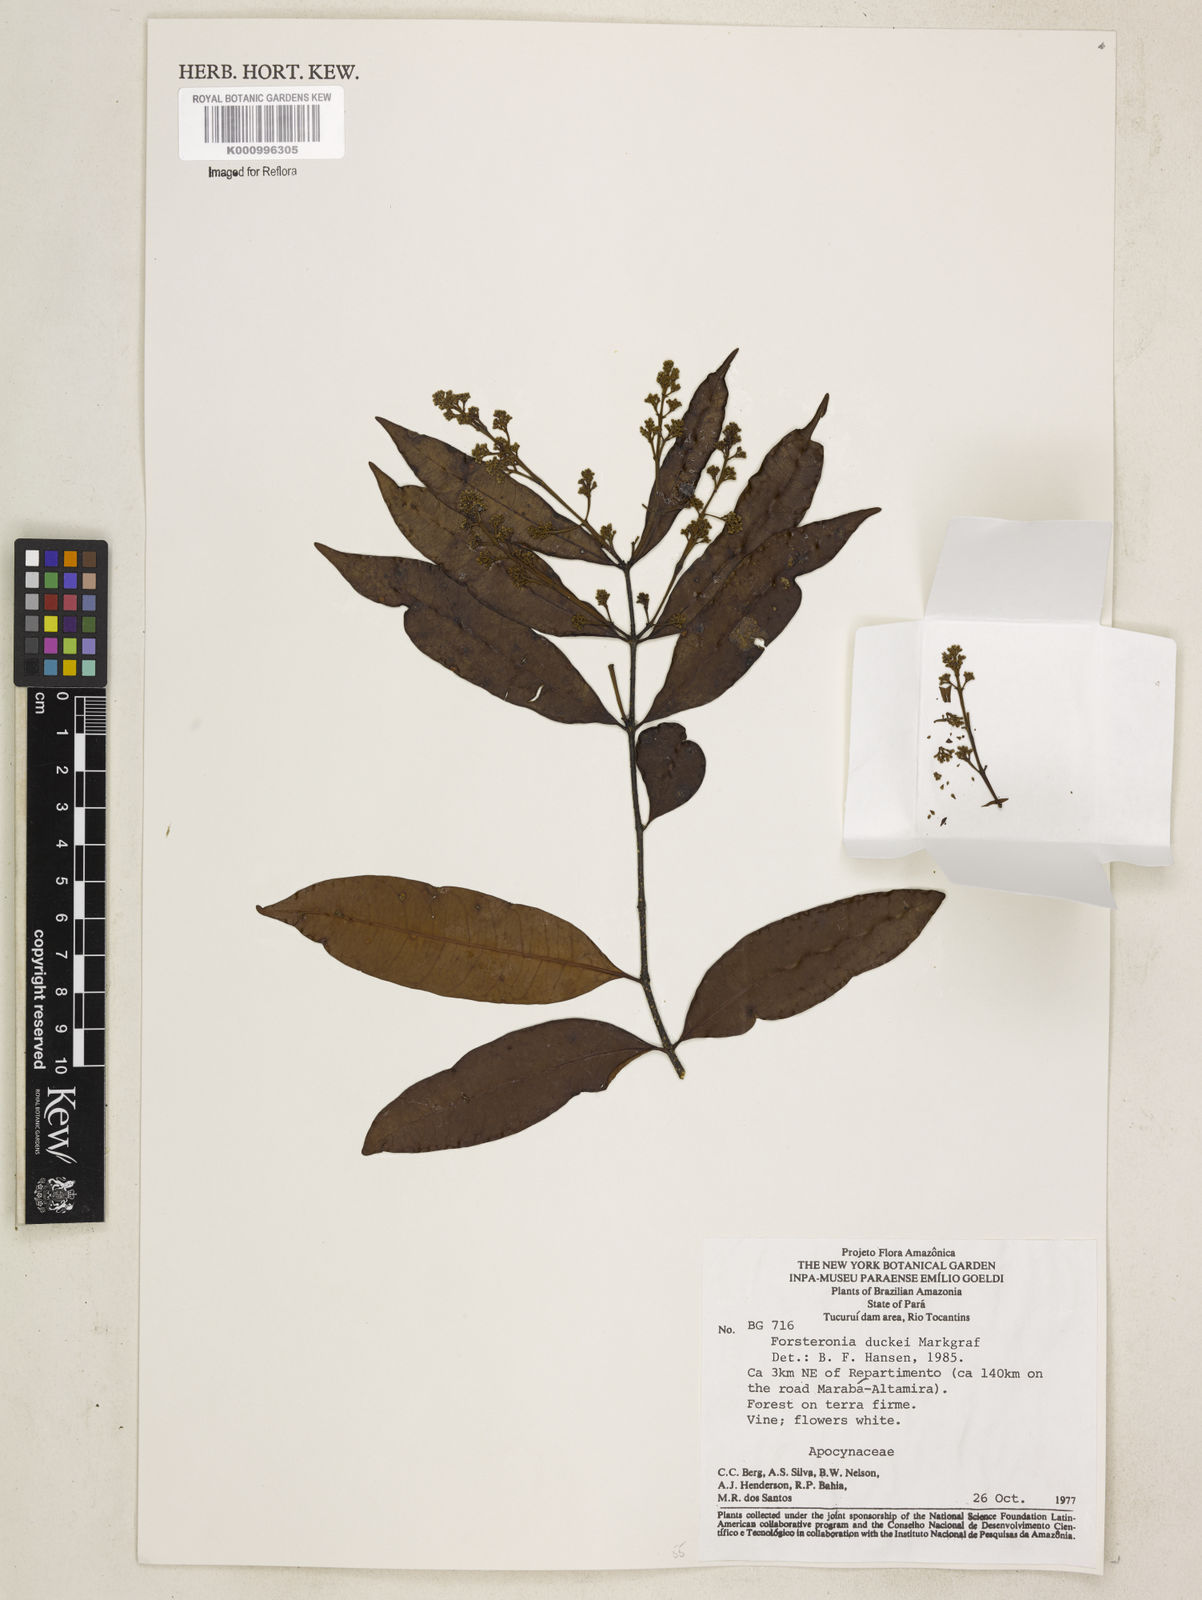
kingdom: Plantae
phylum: Tracheophyta
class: Magnoliopsida
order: Gentianales
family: Apocynaceae
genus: Forsteronia
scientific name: Forsteronia duckei
